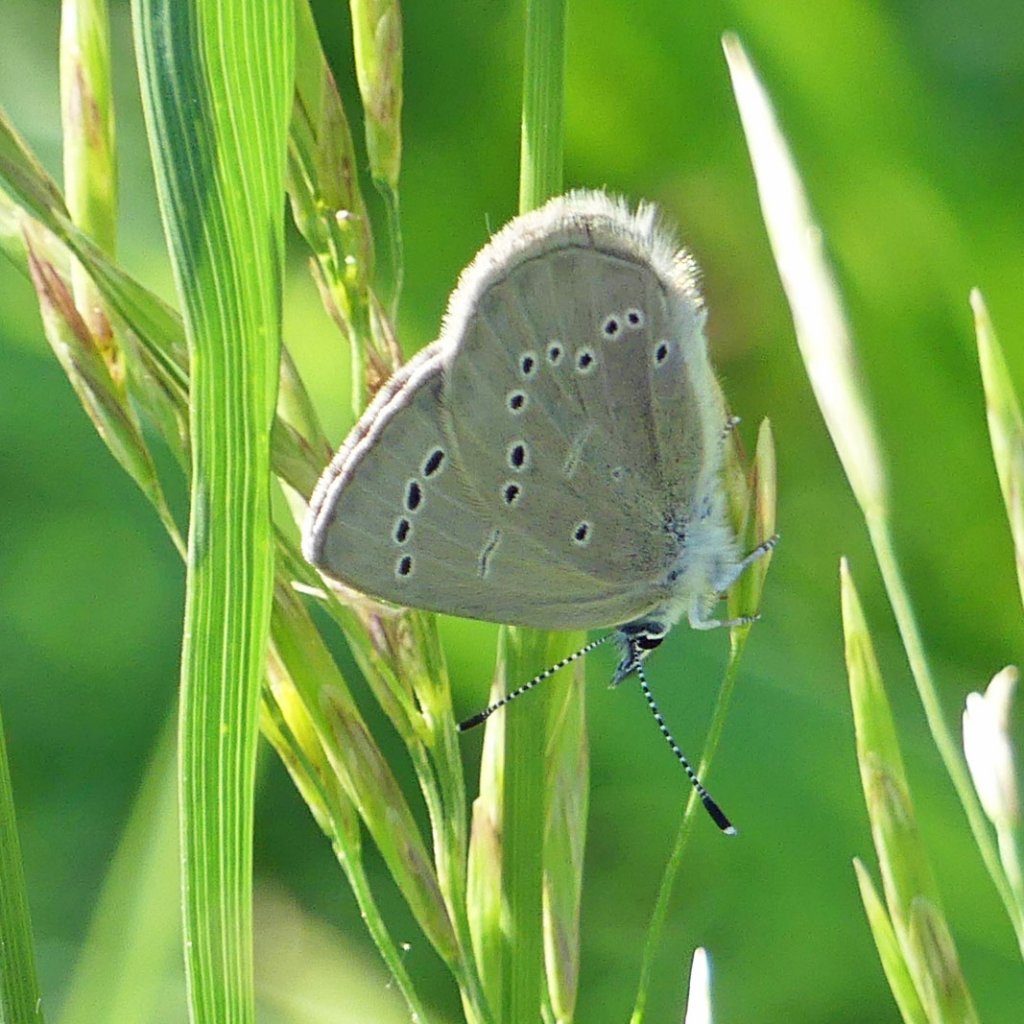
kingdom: Animalia
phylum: Arthropoda
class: Insecta
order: Lepidoptera
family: Lycaenidae
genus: Glaucopsyche
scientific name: Glaucopsyche lygdamus
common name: Silvery Blue
